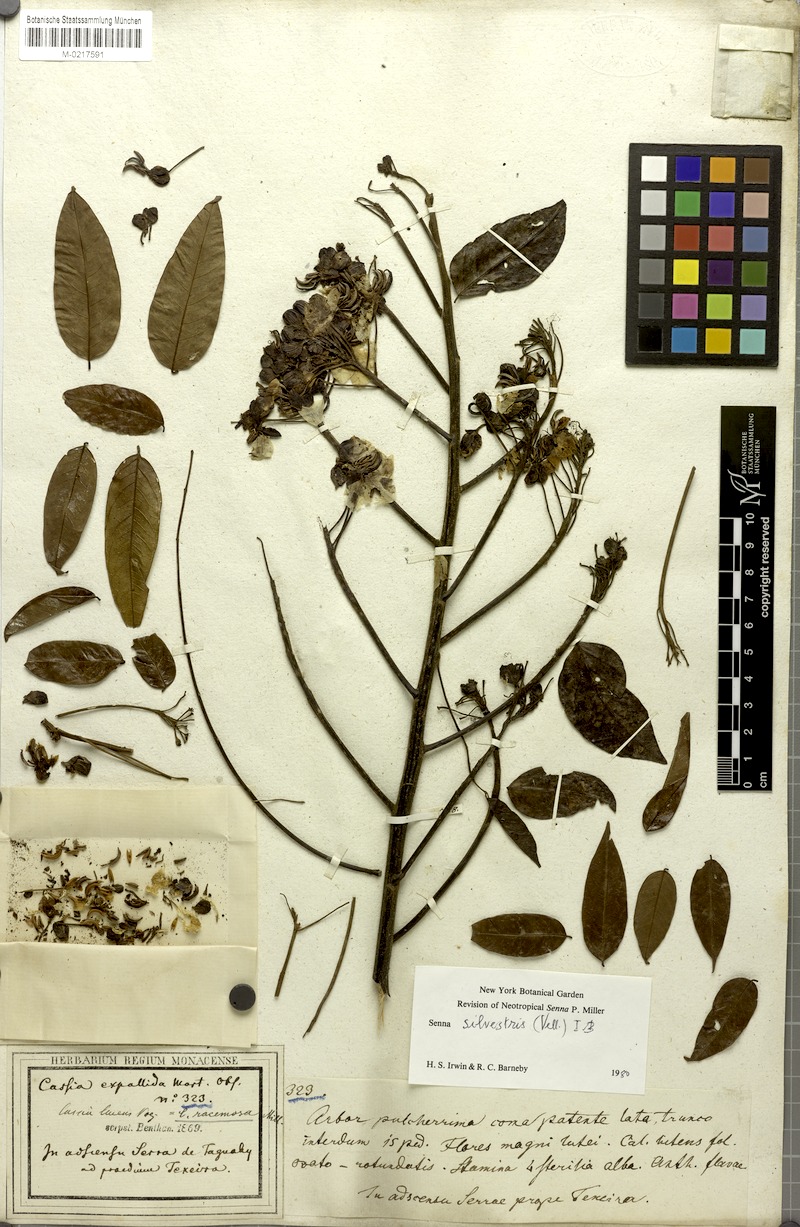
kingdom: Plantae
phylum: Tracheophyta
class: Magnoliopsida
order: Fabales
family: Fabaceae
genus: Senna
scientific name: Senna silvestris
